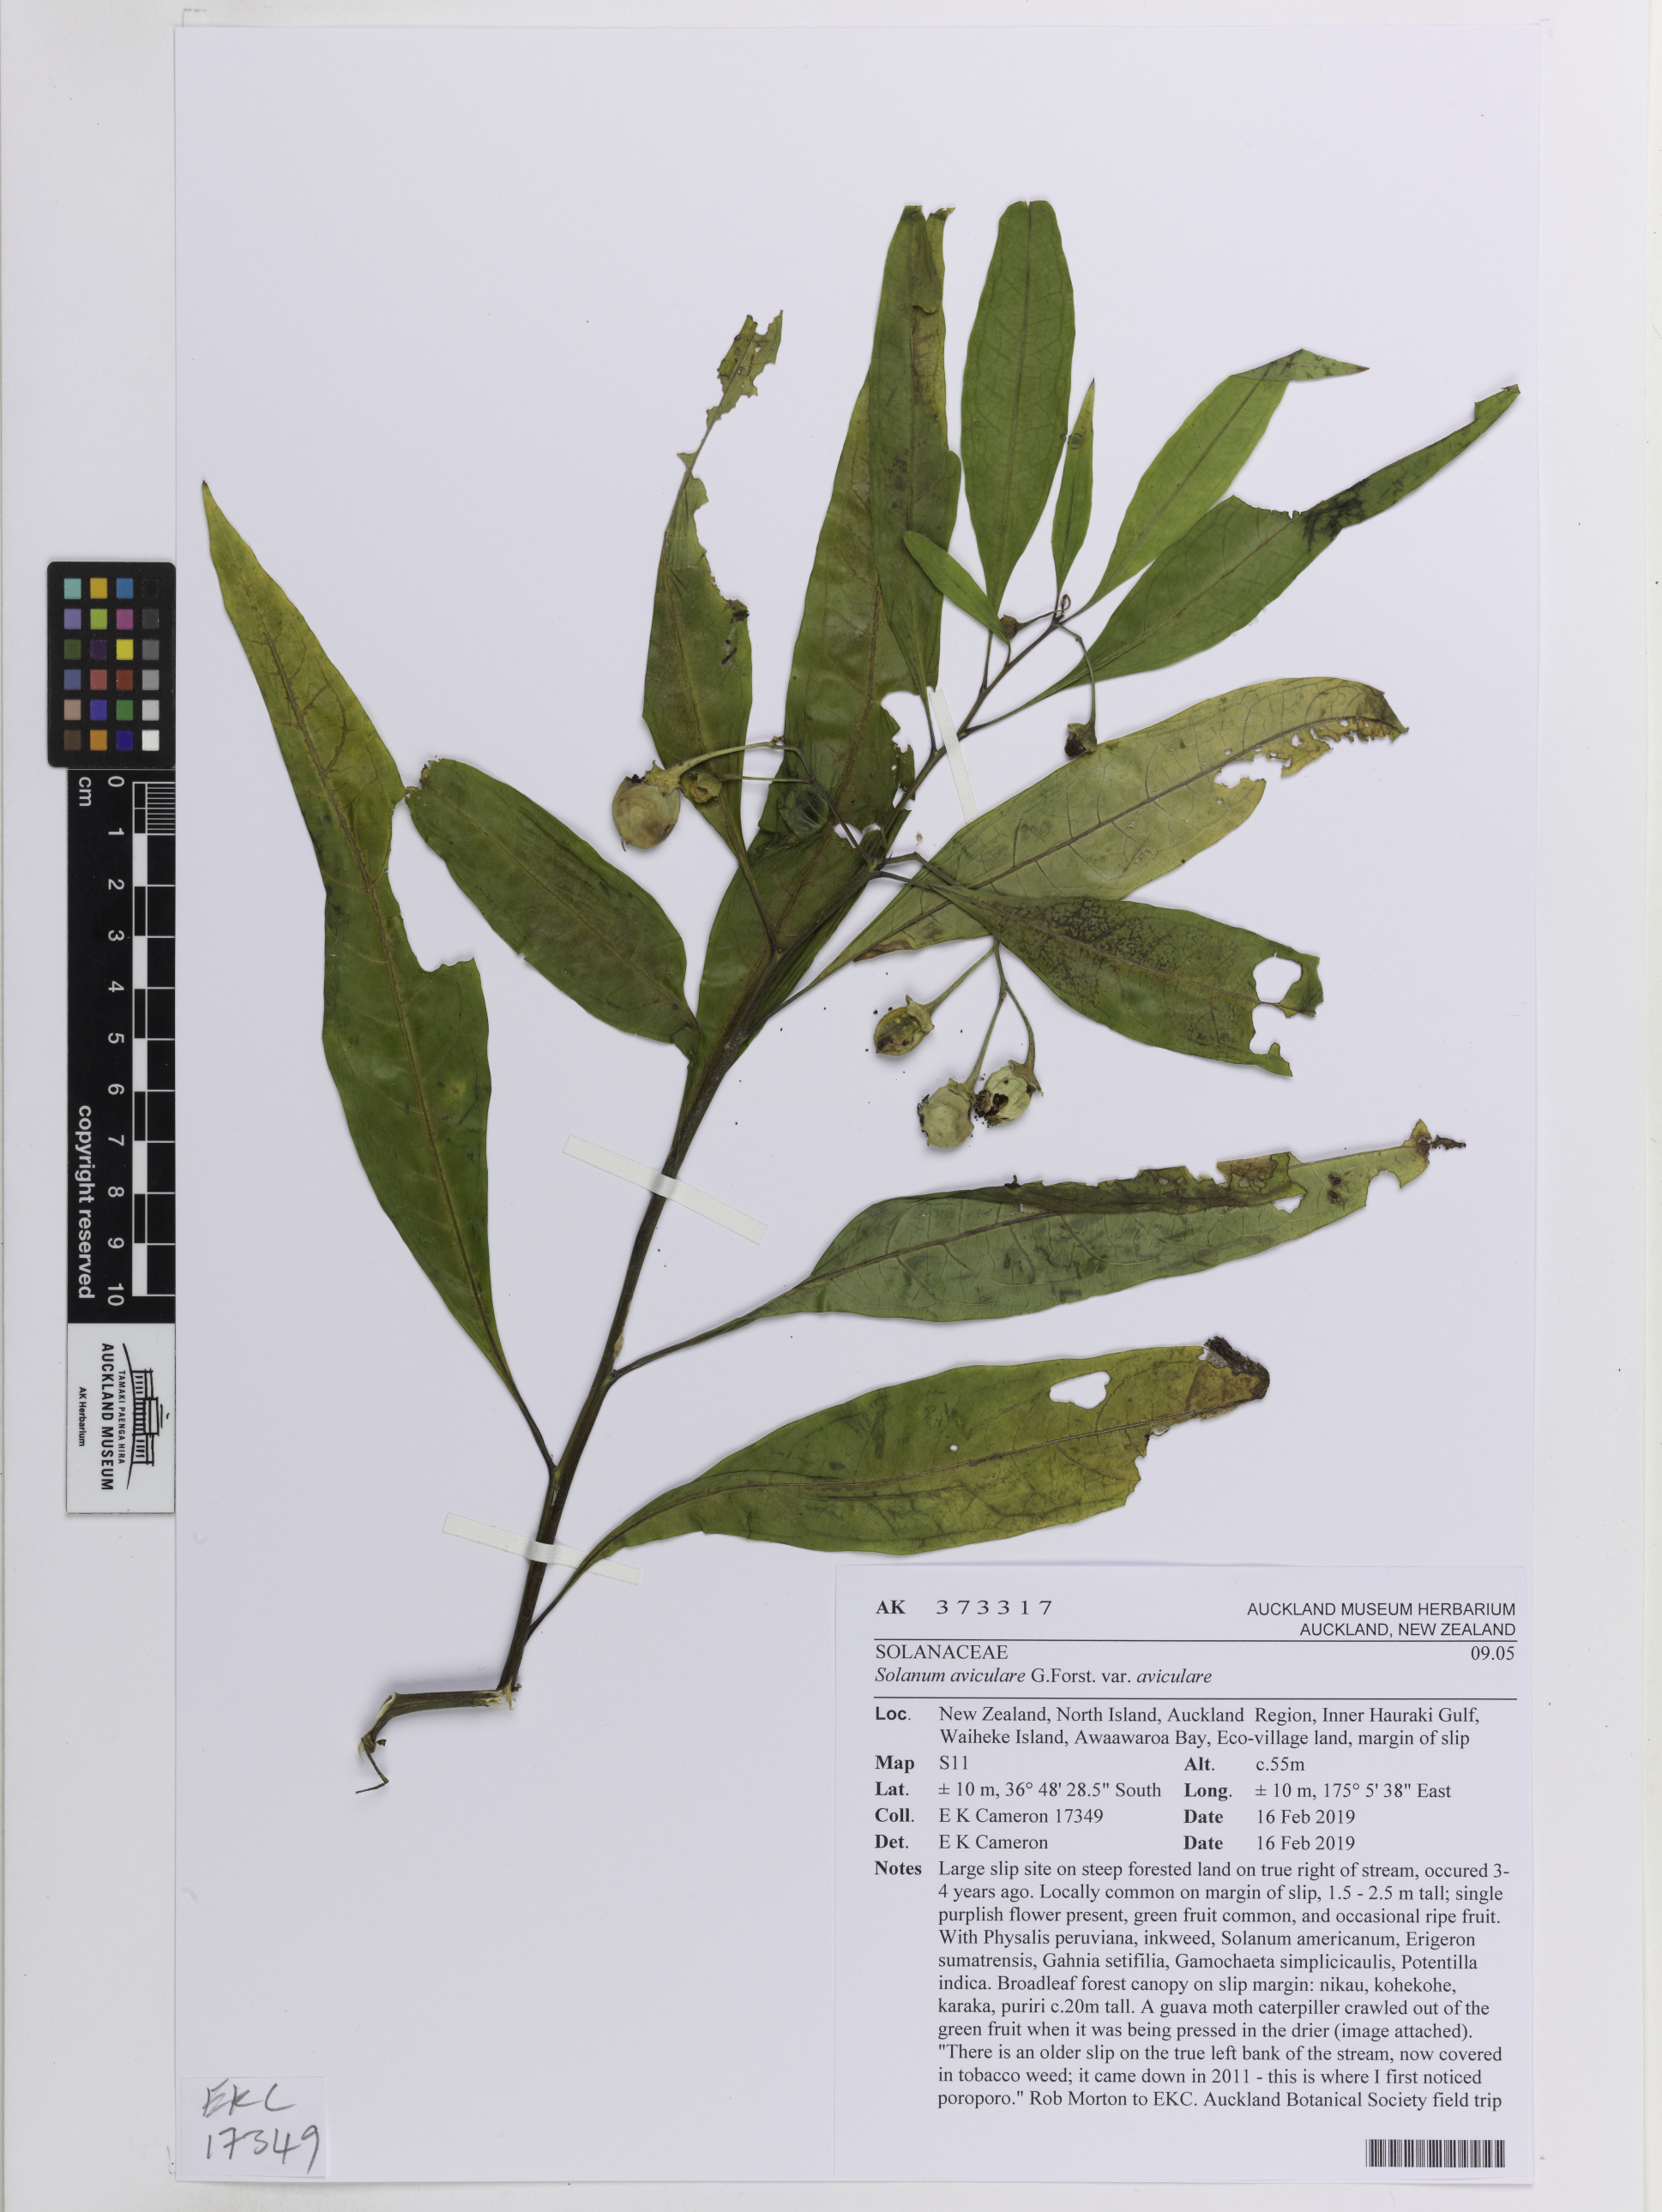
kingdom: Plantae
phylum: Tracheophyta
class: Magnoliopsida
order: Solanales
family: Solanaceae
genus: Solanum
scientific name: Solanum aviculare
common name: New zealand nightshade
